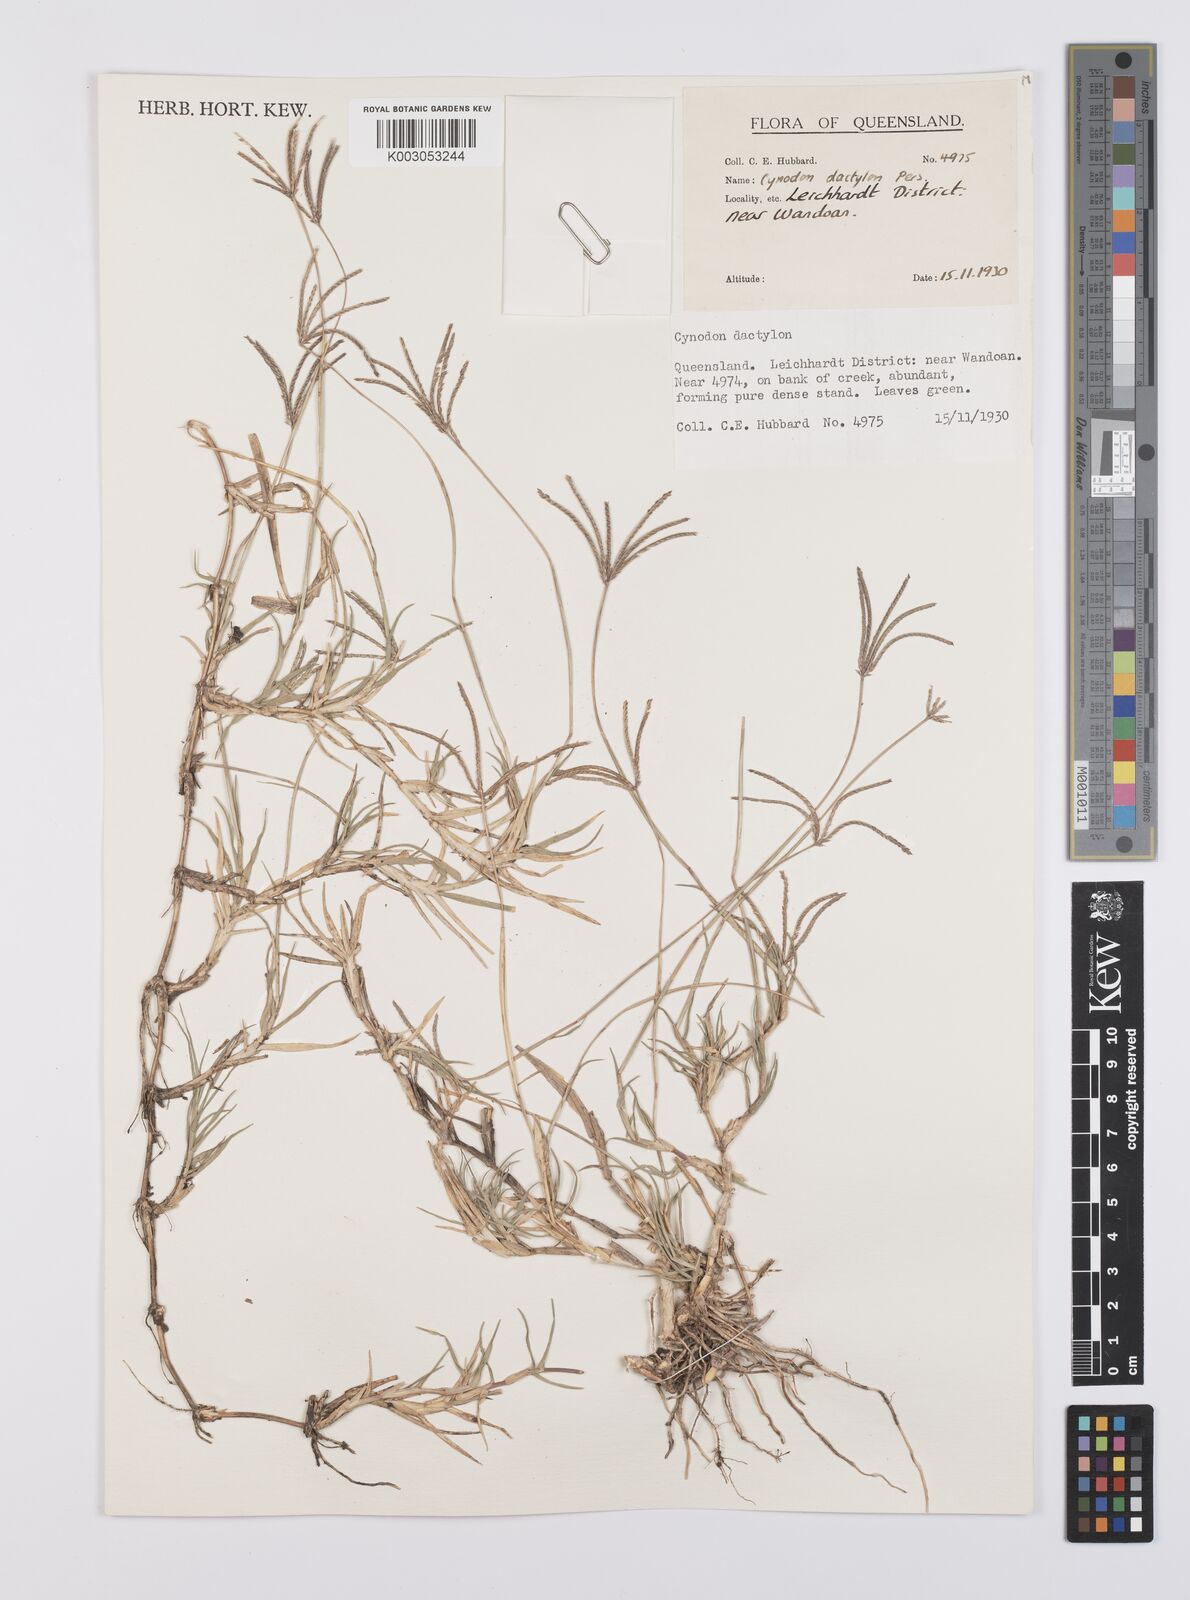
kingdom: Plantae
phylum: Tracheophyta
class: Liliopsida
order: Poales
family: Poaceae
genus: Cynodon
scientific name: Cynodon dactylon
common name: Bermuda grass
